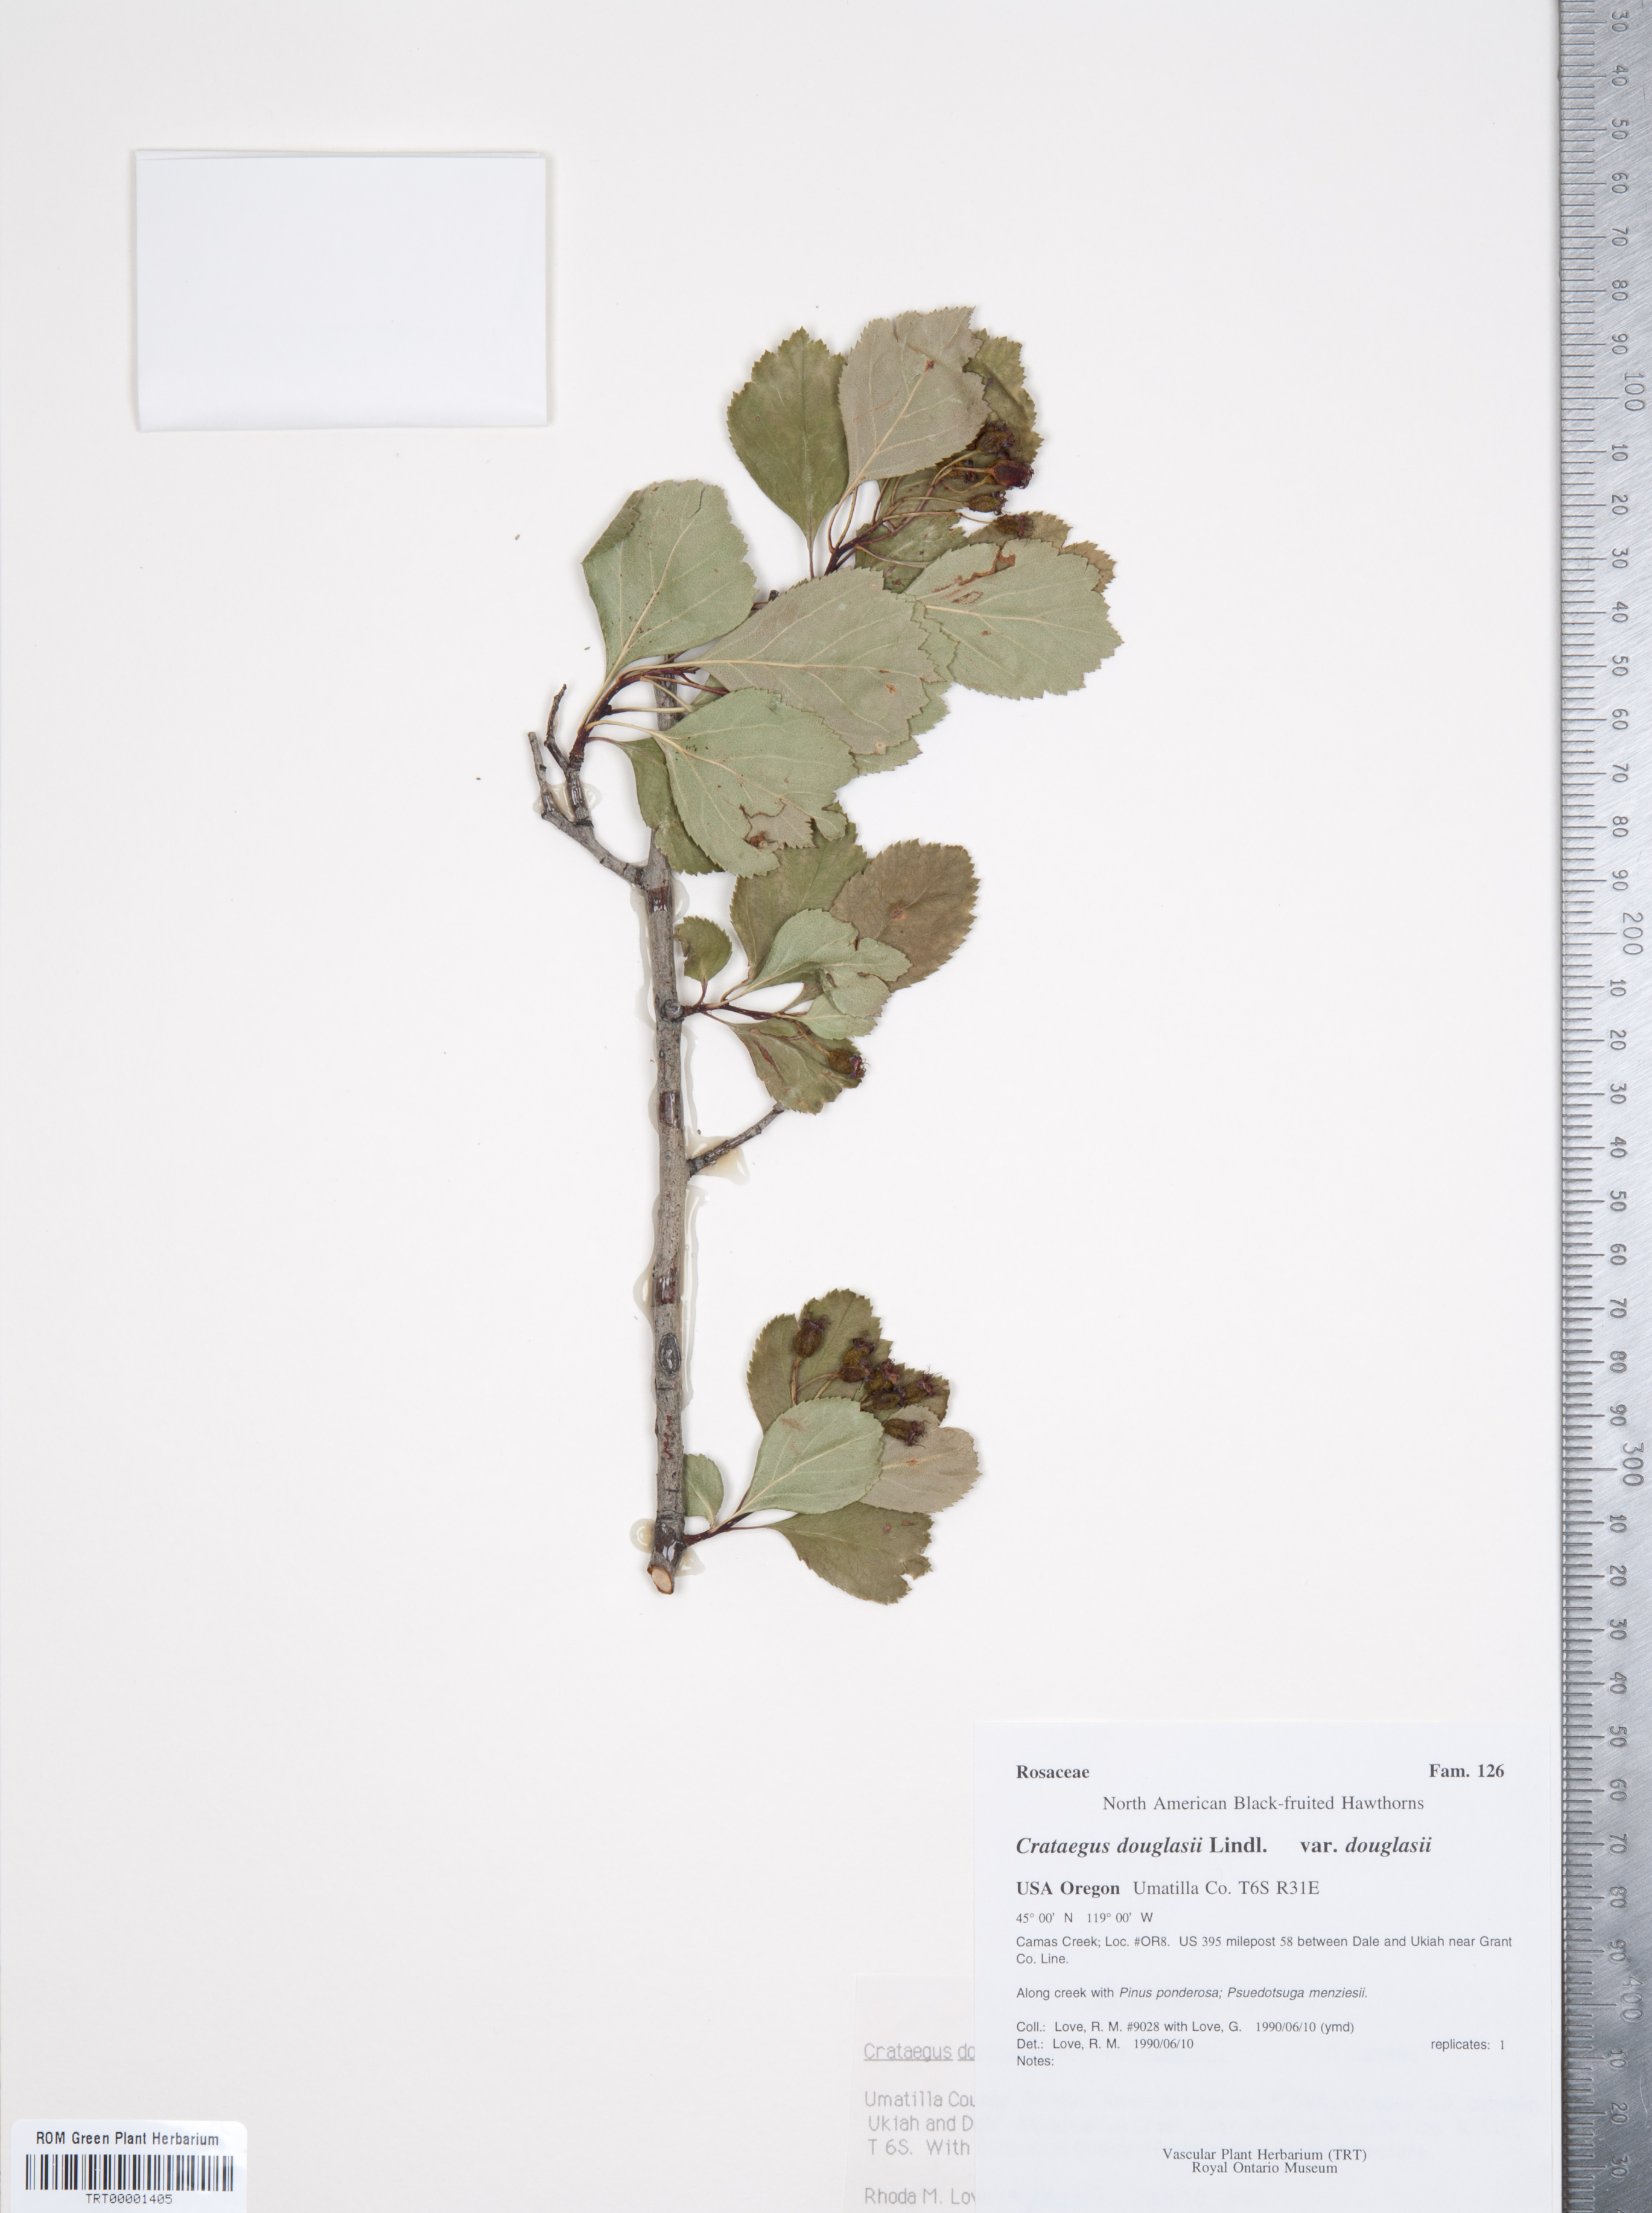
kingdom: Plantae
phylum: Tracheophyta
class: Magnoliopsida
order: Rosales
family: Rosaceae
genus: Crataegus
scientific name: Crataegus douglasii
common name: Black hawthorn
